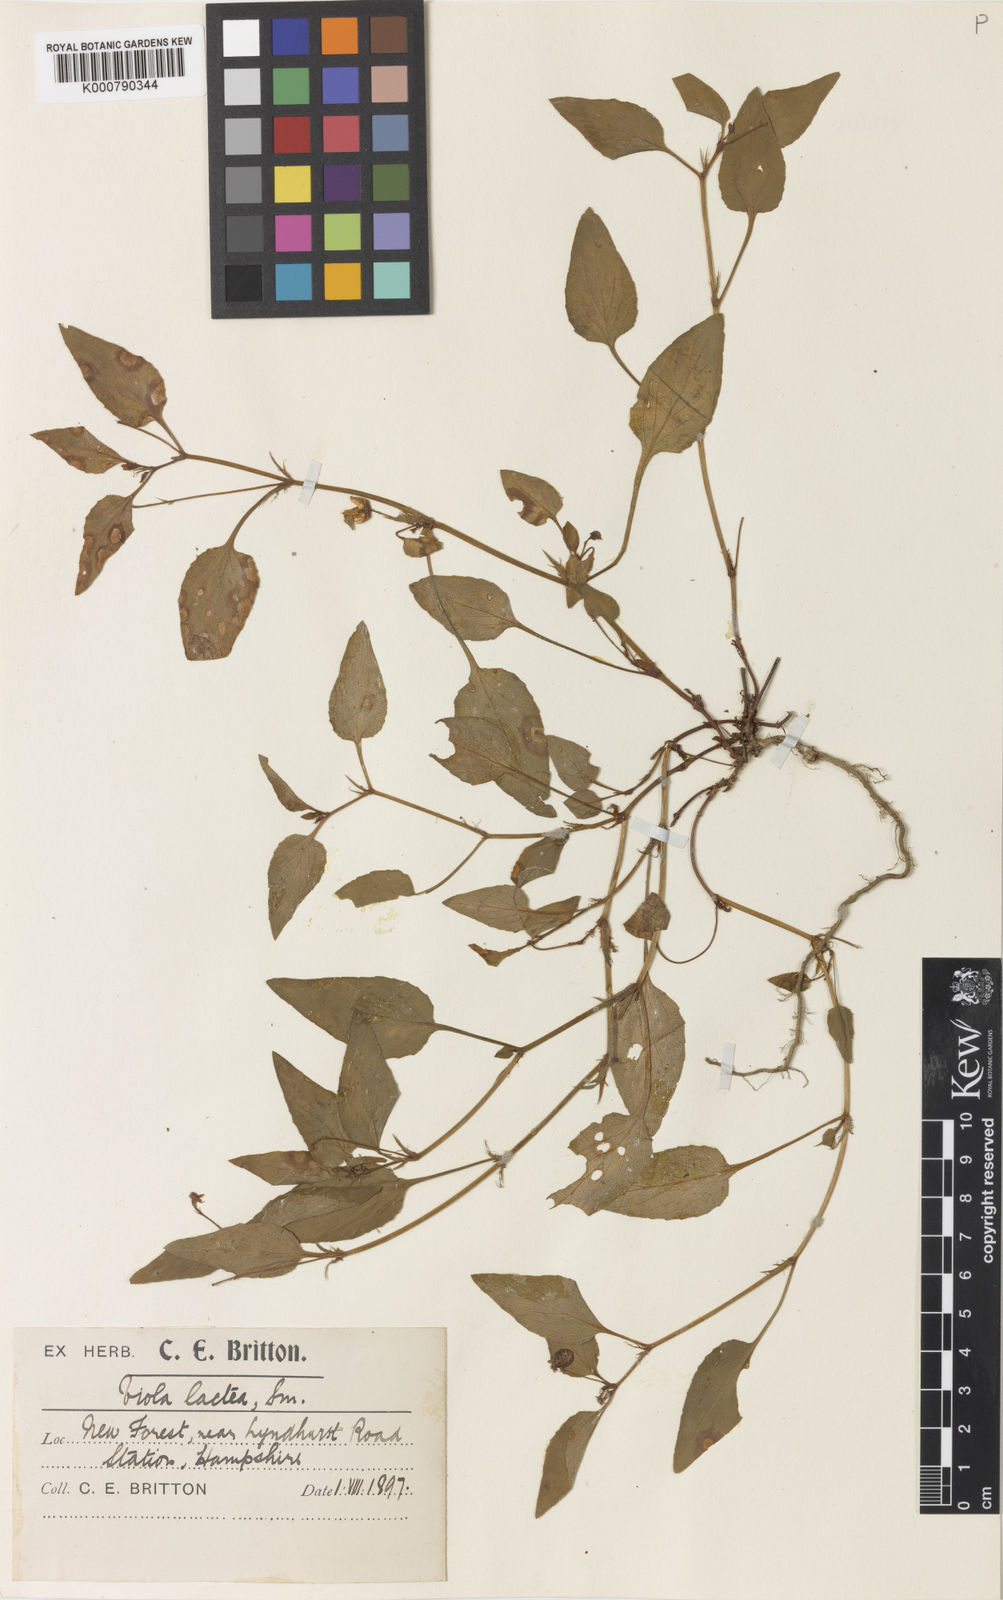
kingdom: Plantae
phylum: Tracheophyta
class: Magnoliopsida
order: Malpighiales
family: Violaceae
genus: Viola
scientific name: Viola lactea
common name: Pale dog-violet
